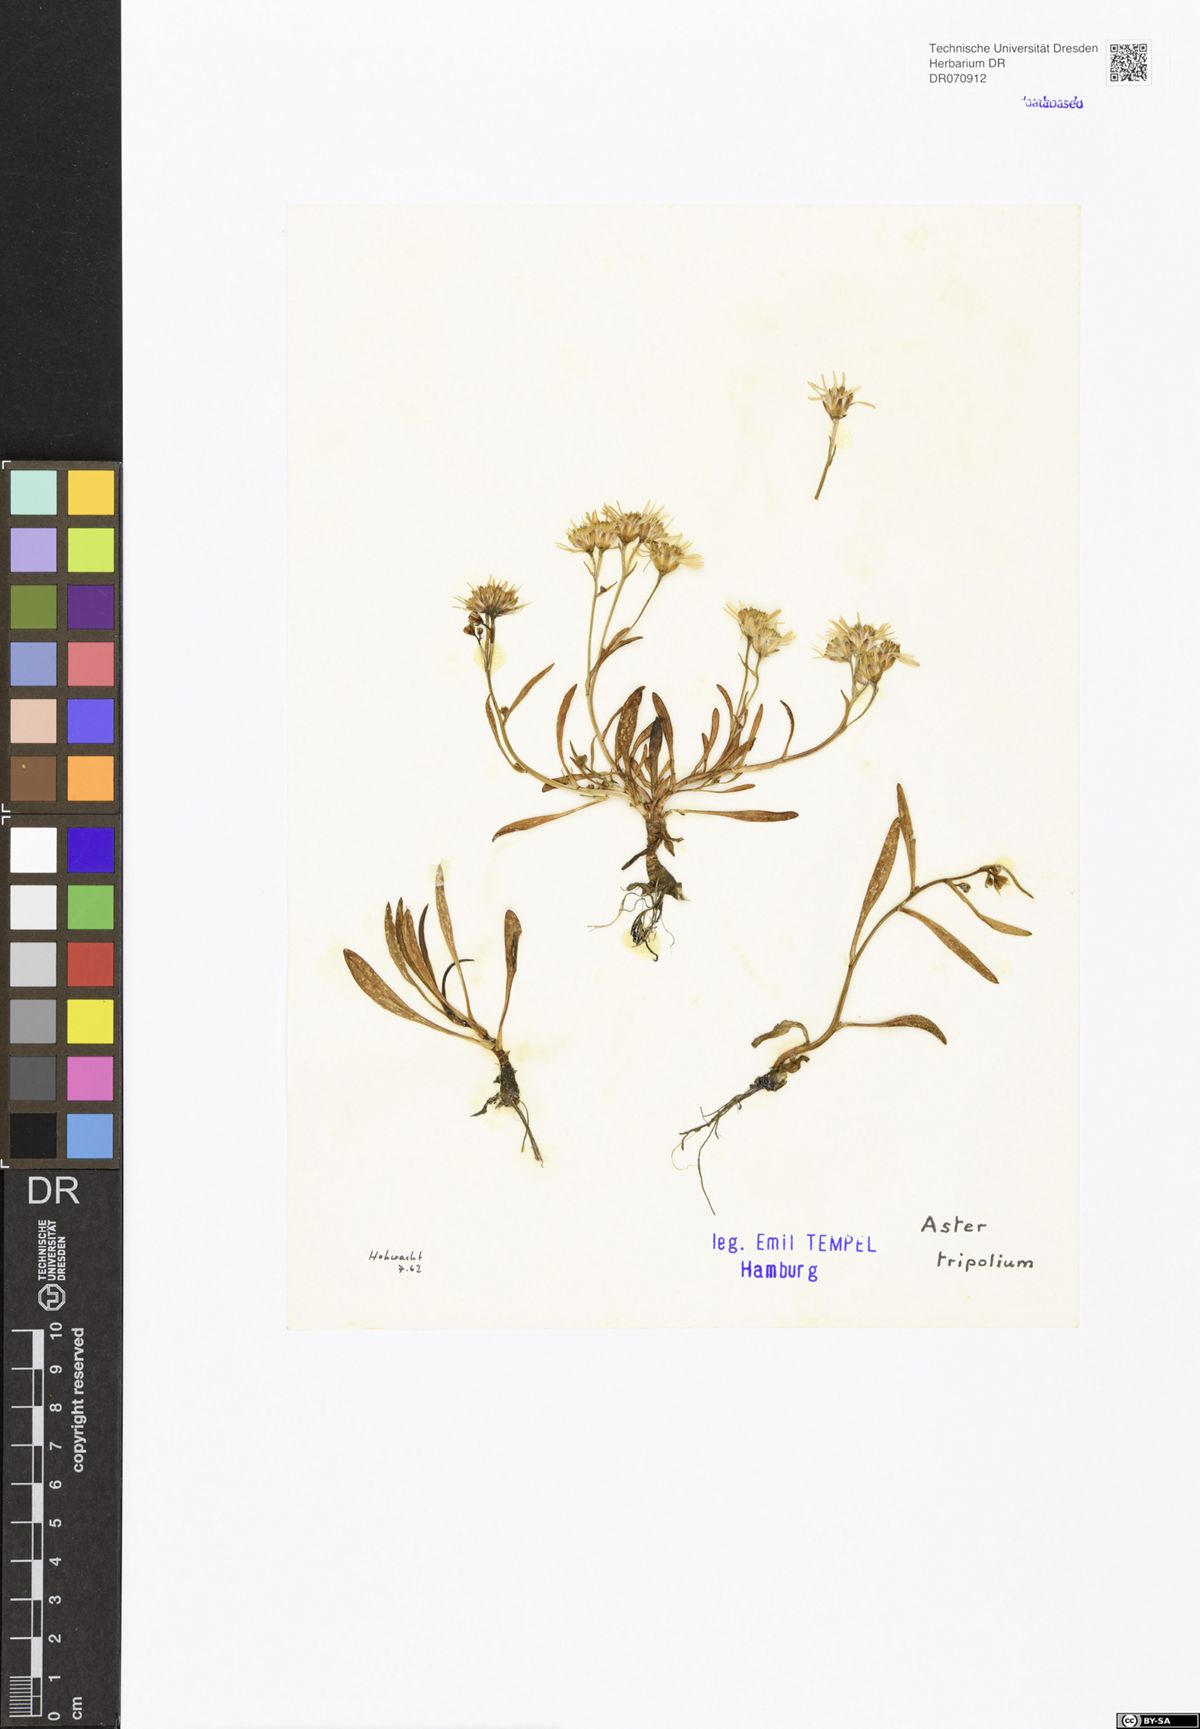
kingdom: Plantae
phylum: Tracheophyta
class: Magnoliopsida
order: Asterales
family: Asteraceae
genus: Tripolium
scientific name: Tripolium pannonicum
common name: Sea aster
